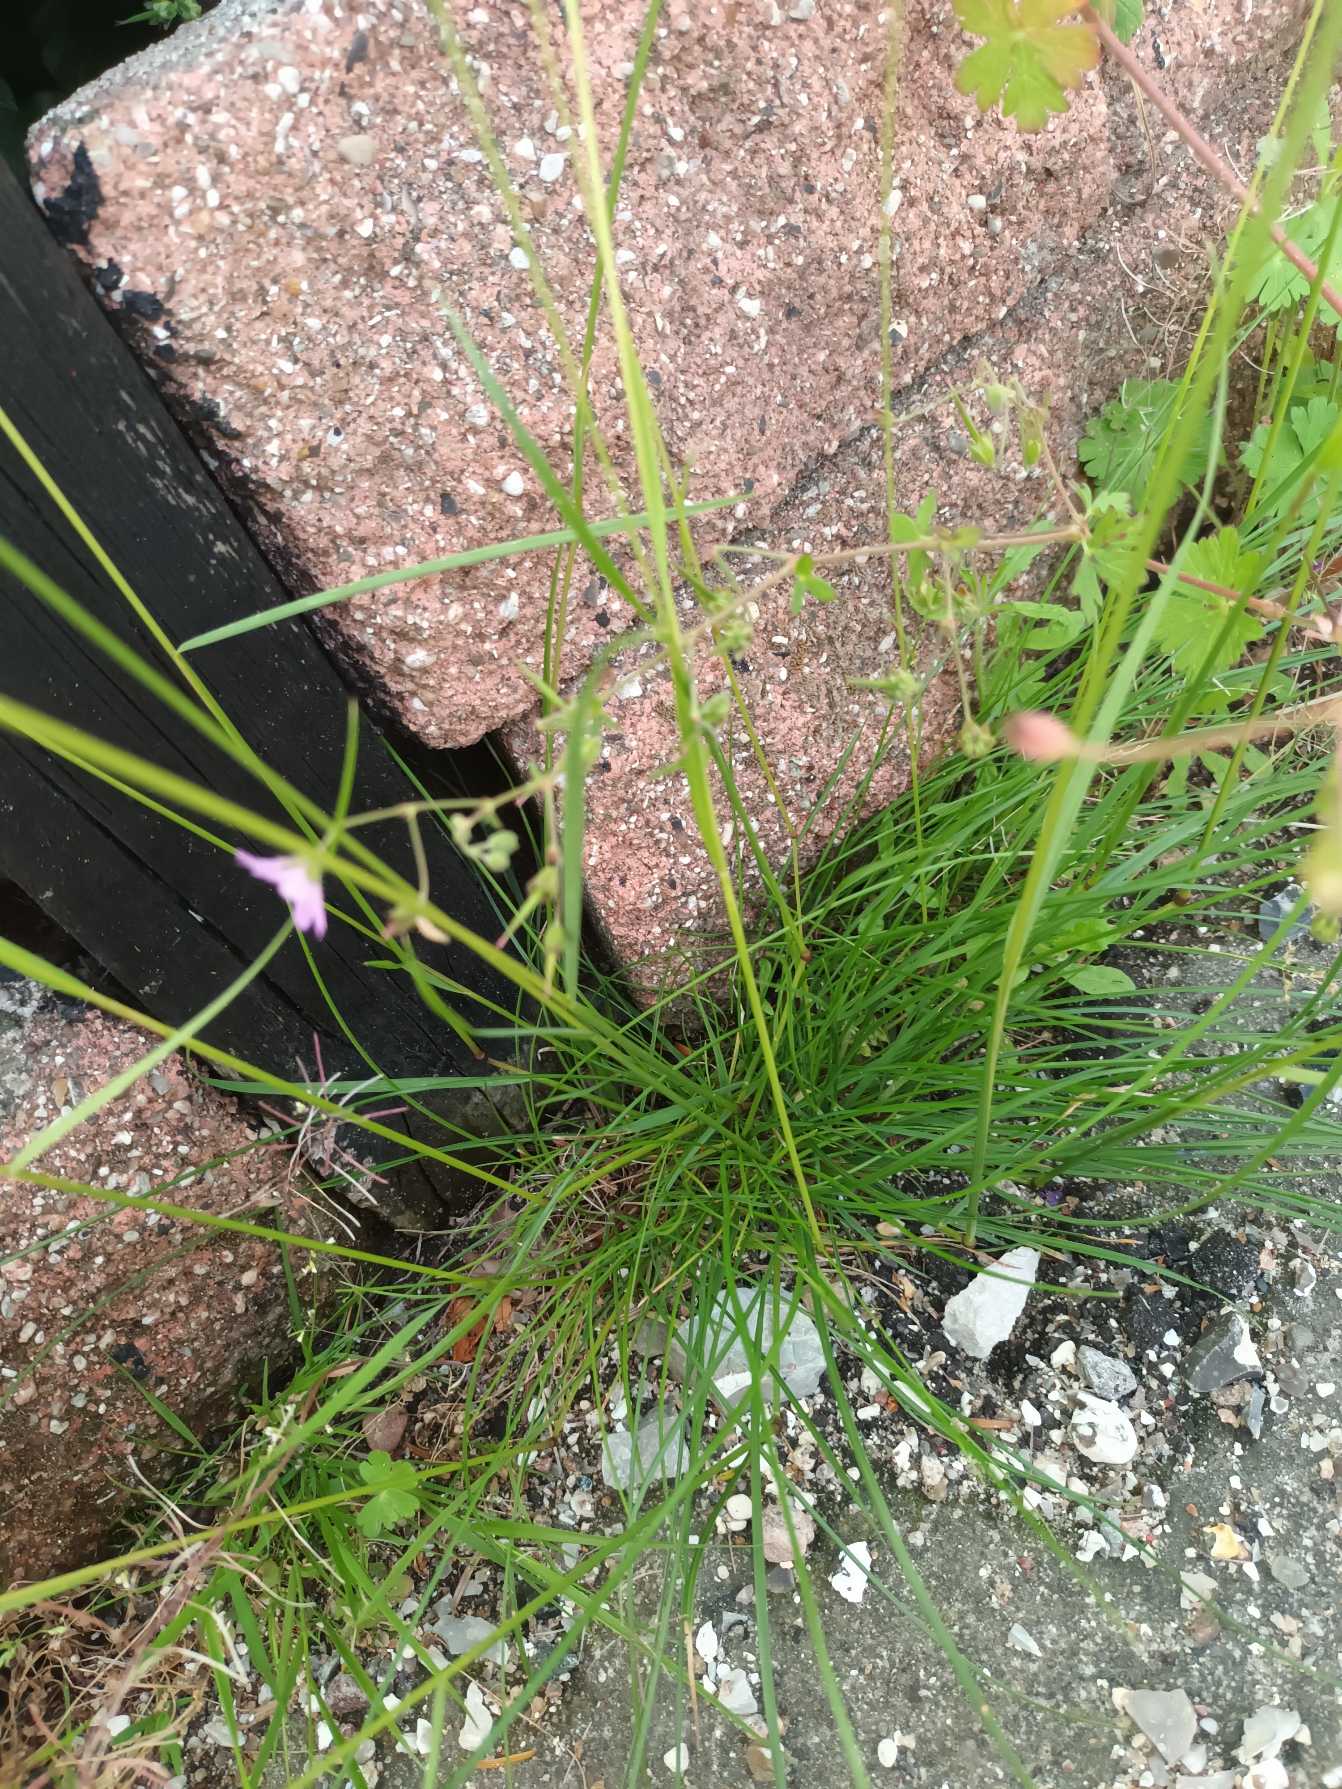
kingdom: Plantae
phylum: Tracheophyta
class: Liliopsida
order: Poales
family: Poaceae
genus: Festuca
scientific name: Festuca nigrescens
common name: Vej-svingel
